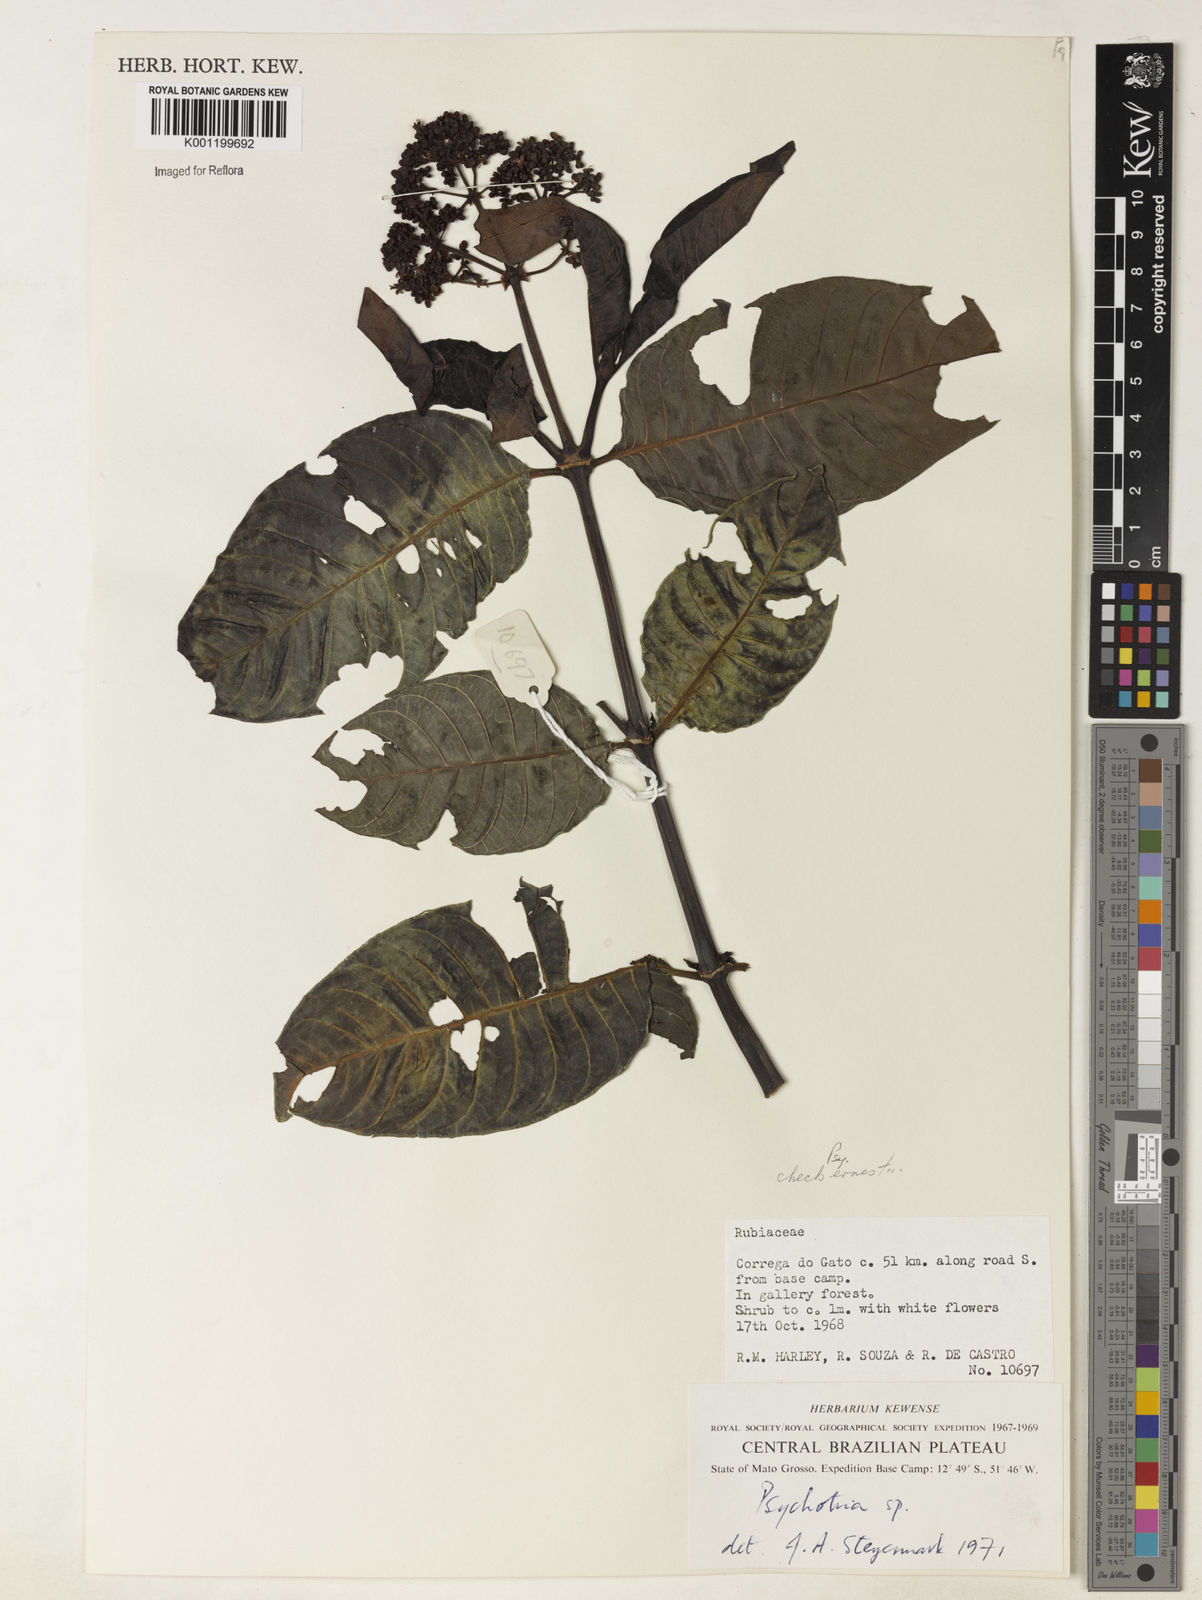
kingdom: Plantae
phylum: Tracheophyta
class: Magnoliopsida
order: Gentianales
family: Rubiaceae
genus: Psychotria
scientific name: Psychotria guianensis
